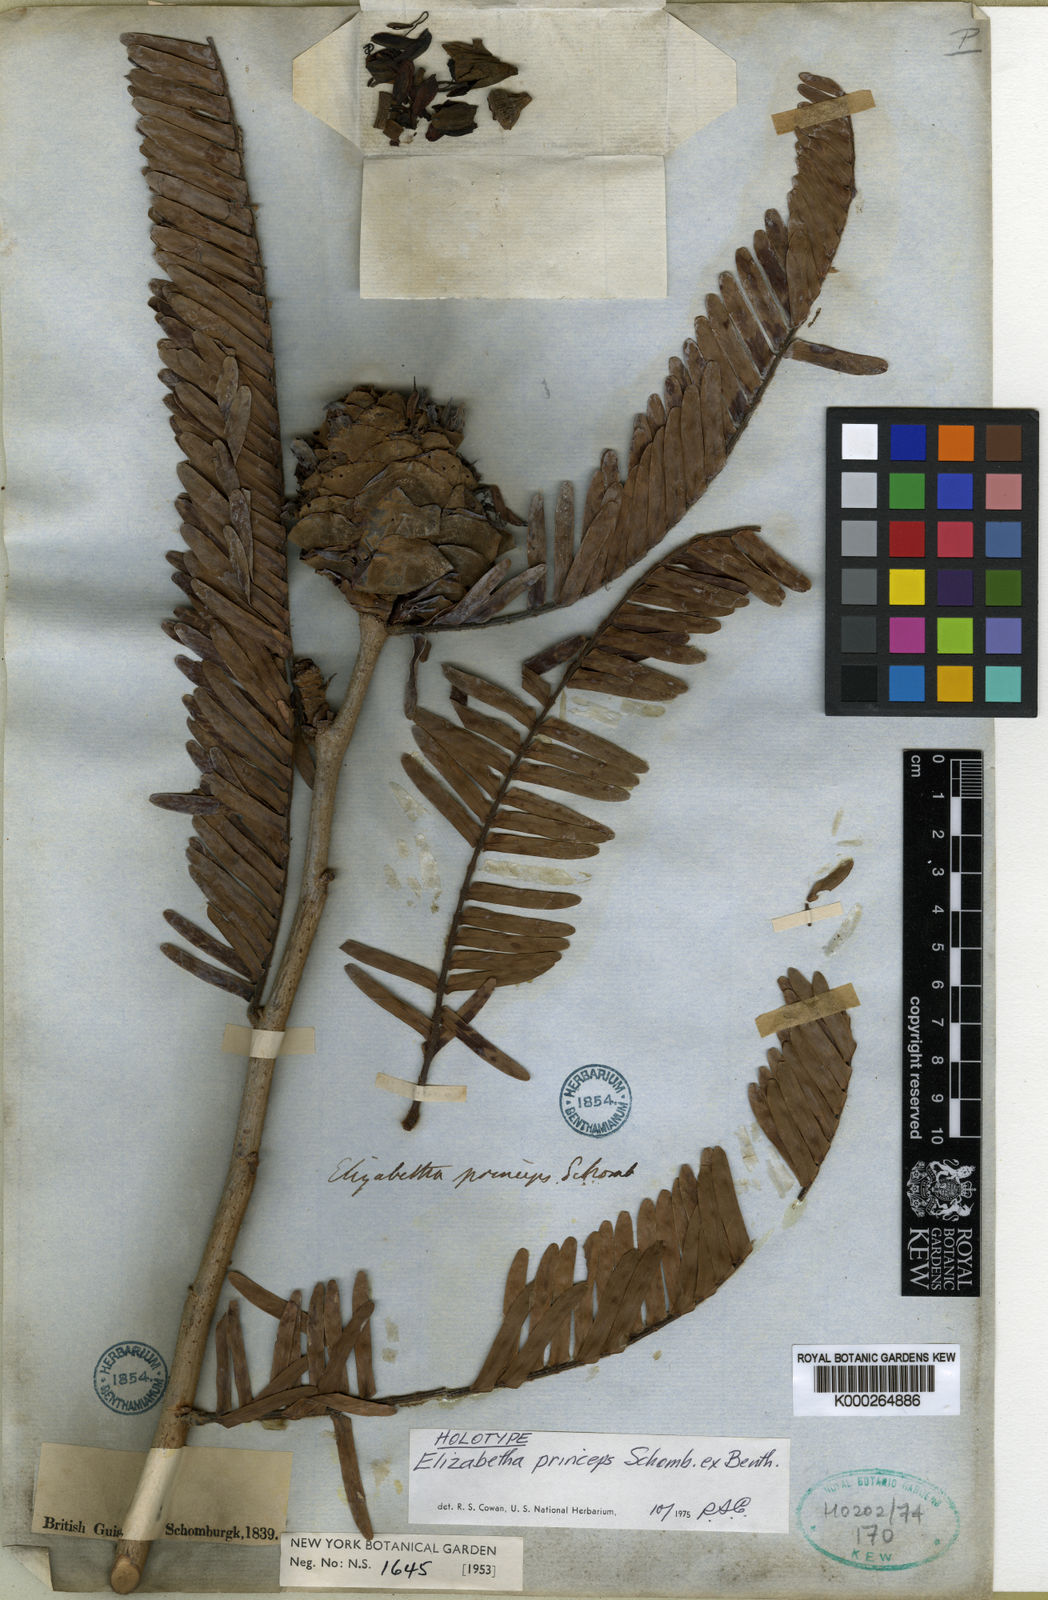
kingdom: Plantae
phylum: Tracheophyta
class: Magnoliopsida
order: Fabales
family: Fabaceae
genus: Paloue
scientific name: Paloue princeps
